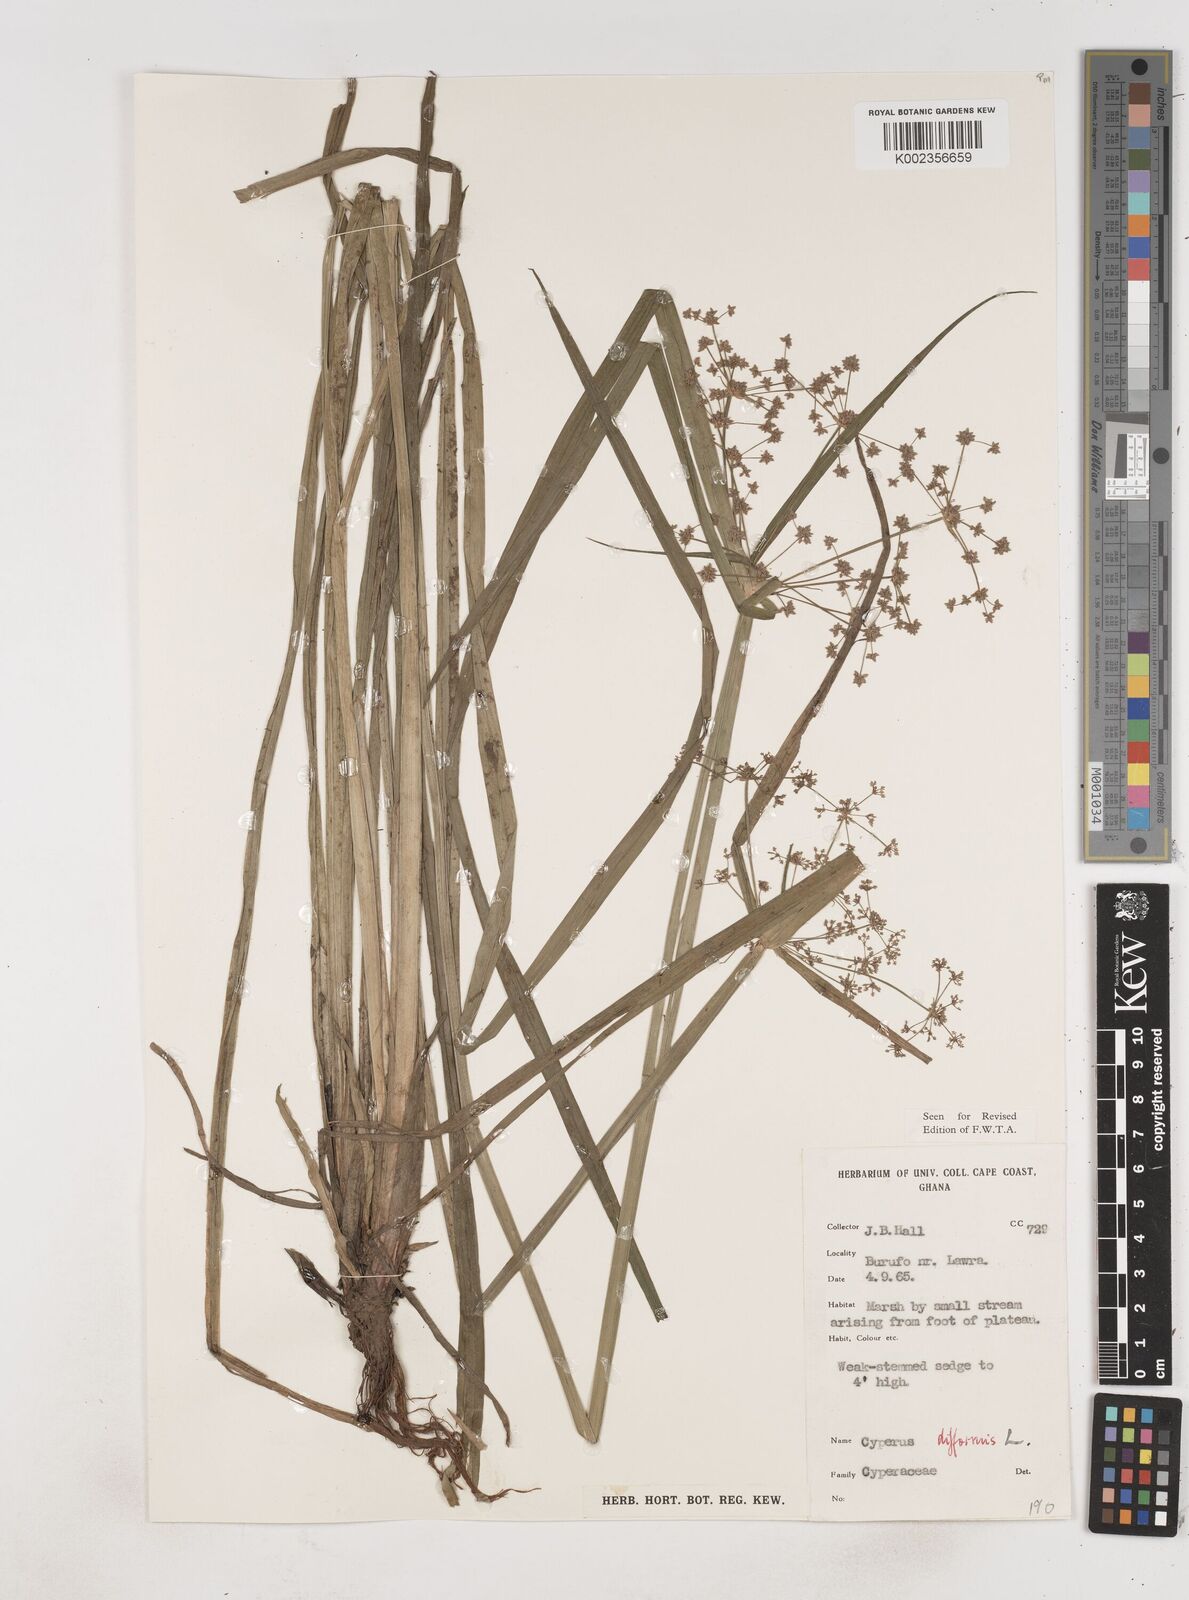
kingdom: Plantae
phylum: Tracheophyta
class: Liliopsida
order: Poales
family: Cyperaceae
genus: Cyperus
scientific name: Cyperus difformis
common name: Variable flatsedge
